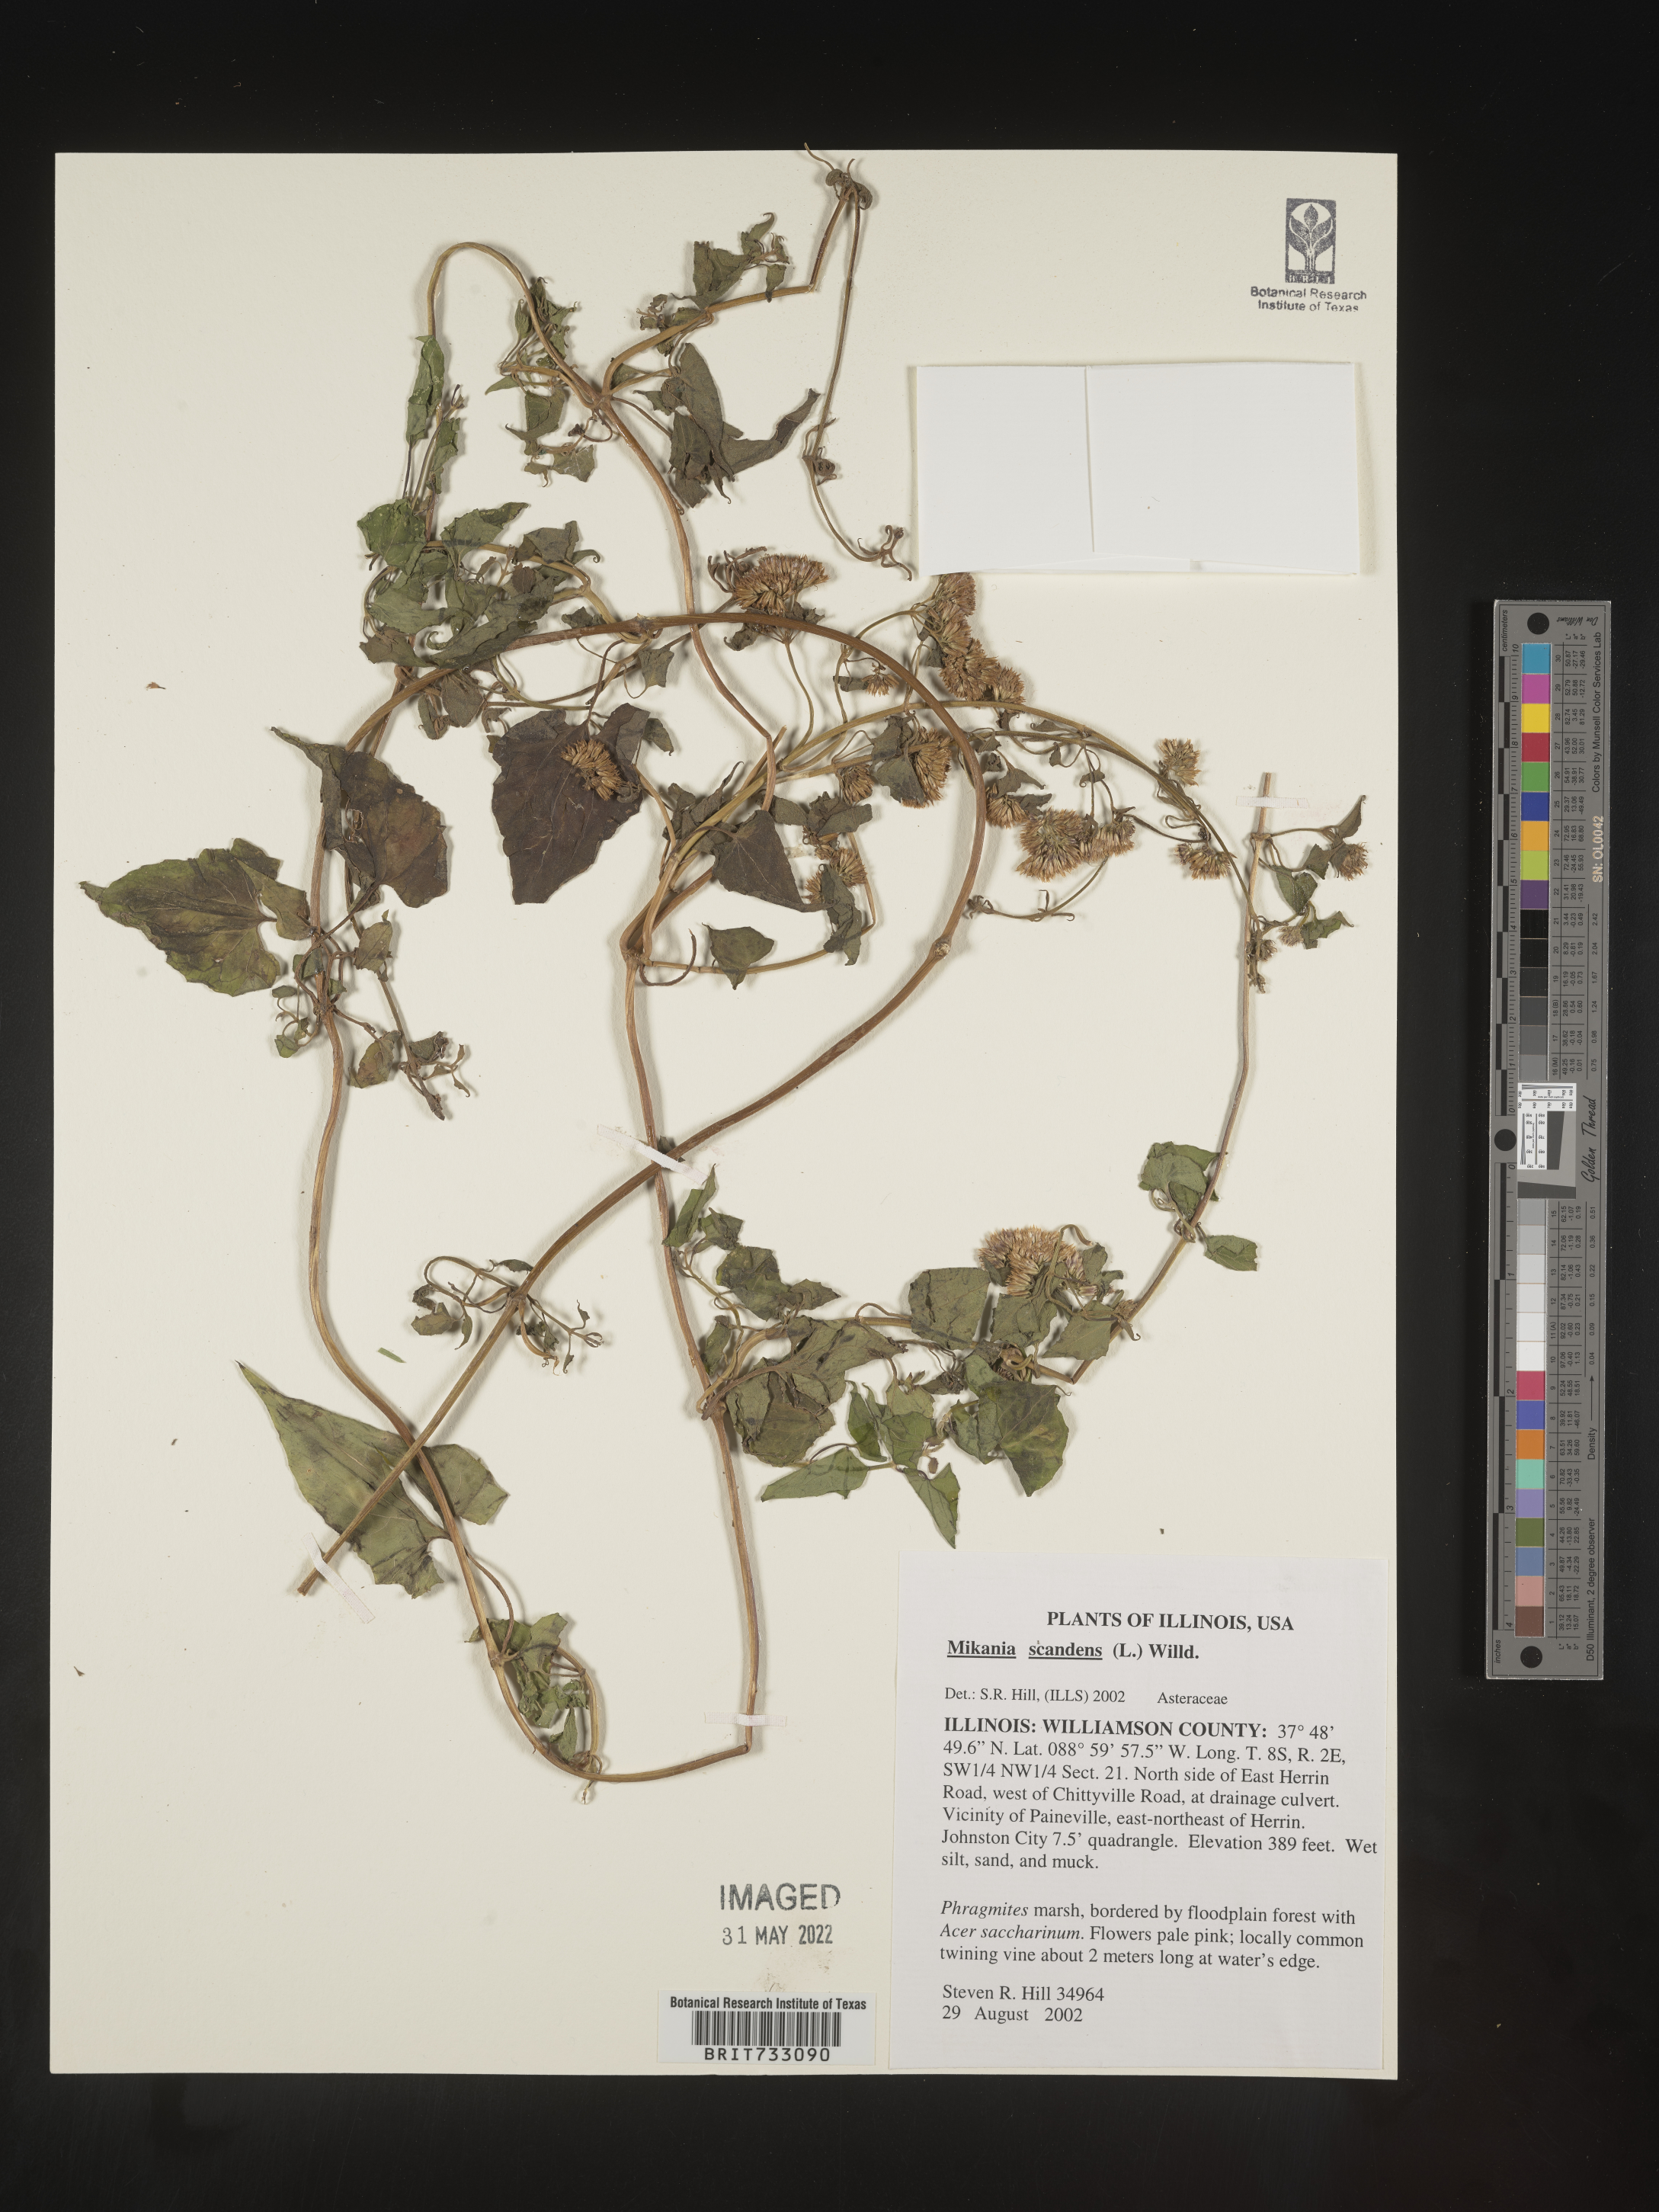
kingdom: Plantae
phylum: Tracheophyta
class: Magnoliopsida
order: Asterales
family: Asteraceae
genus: Mikania
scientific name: Mikania scandens
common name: Climbing hempvine
